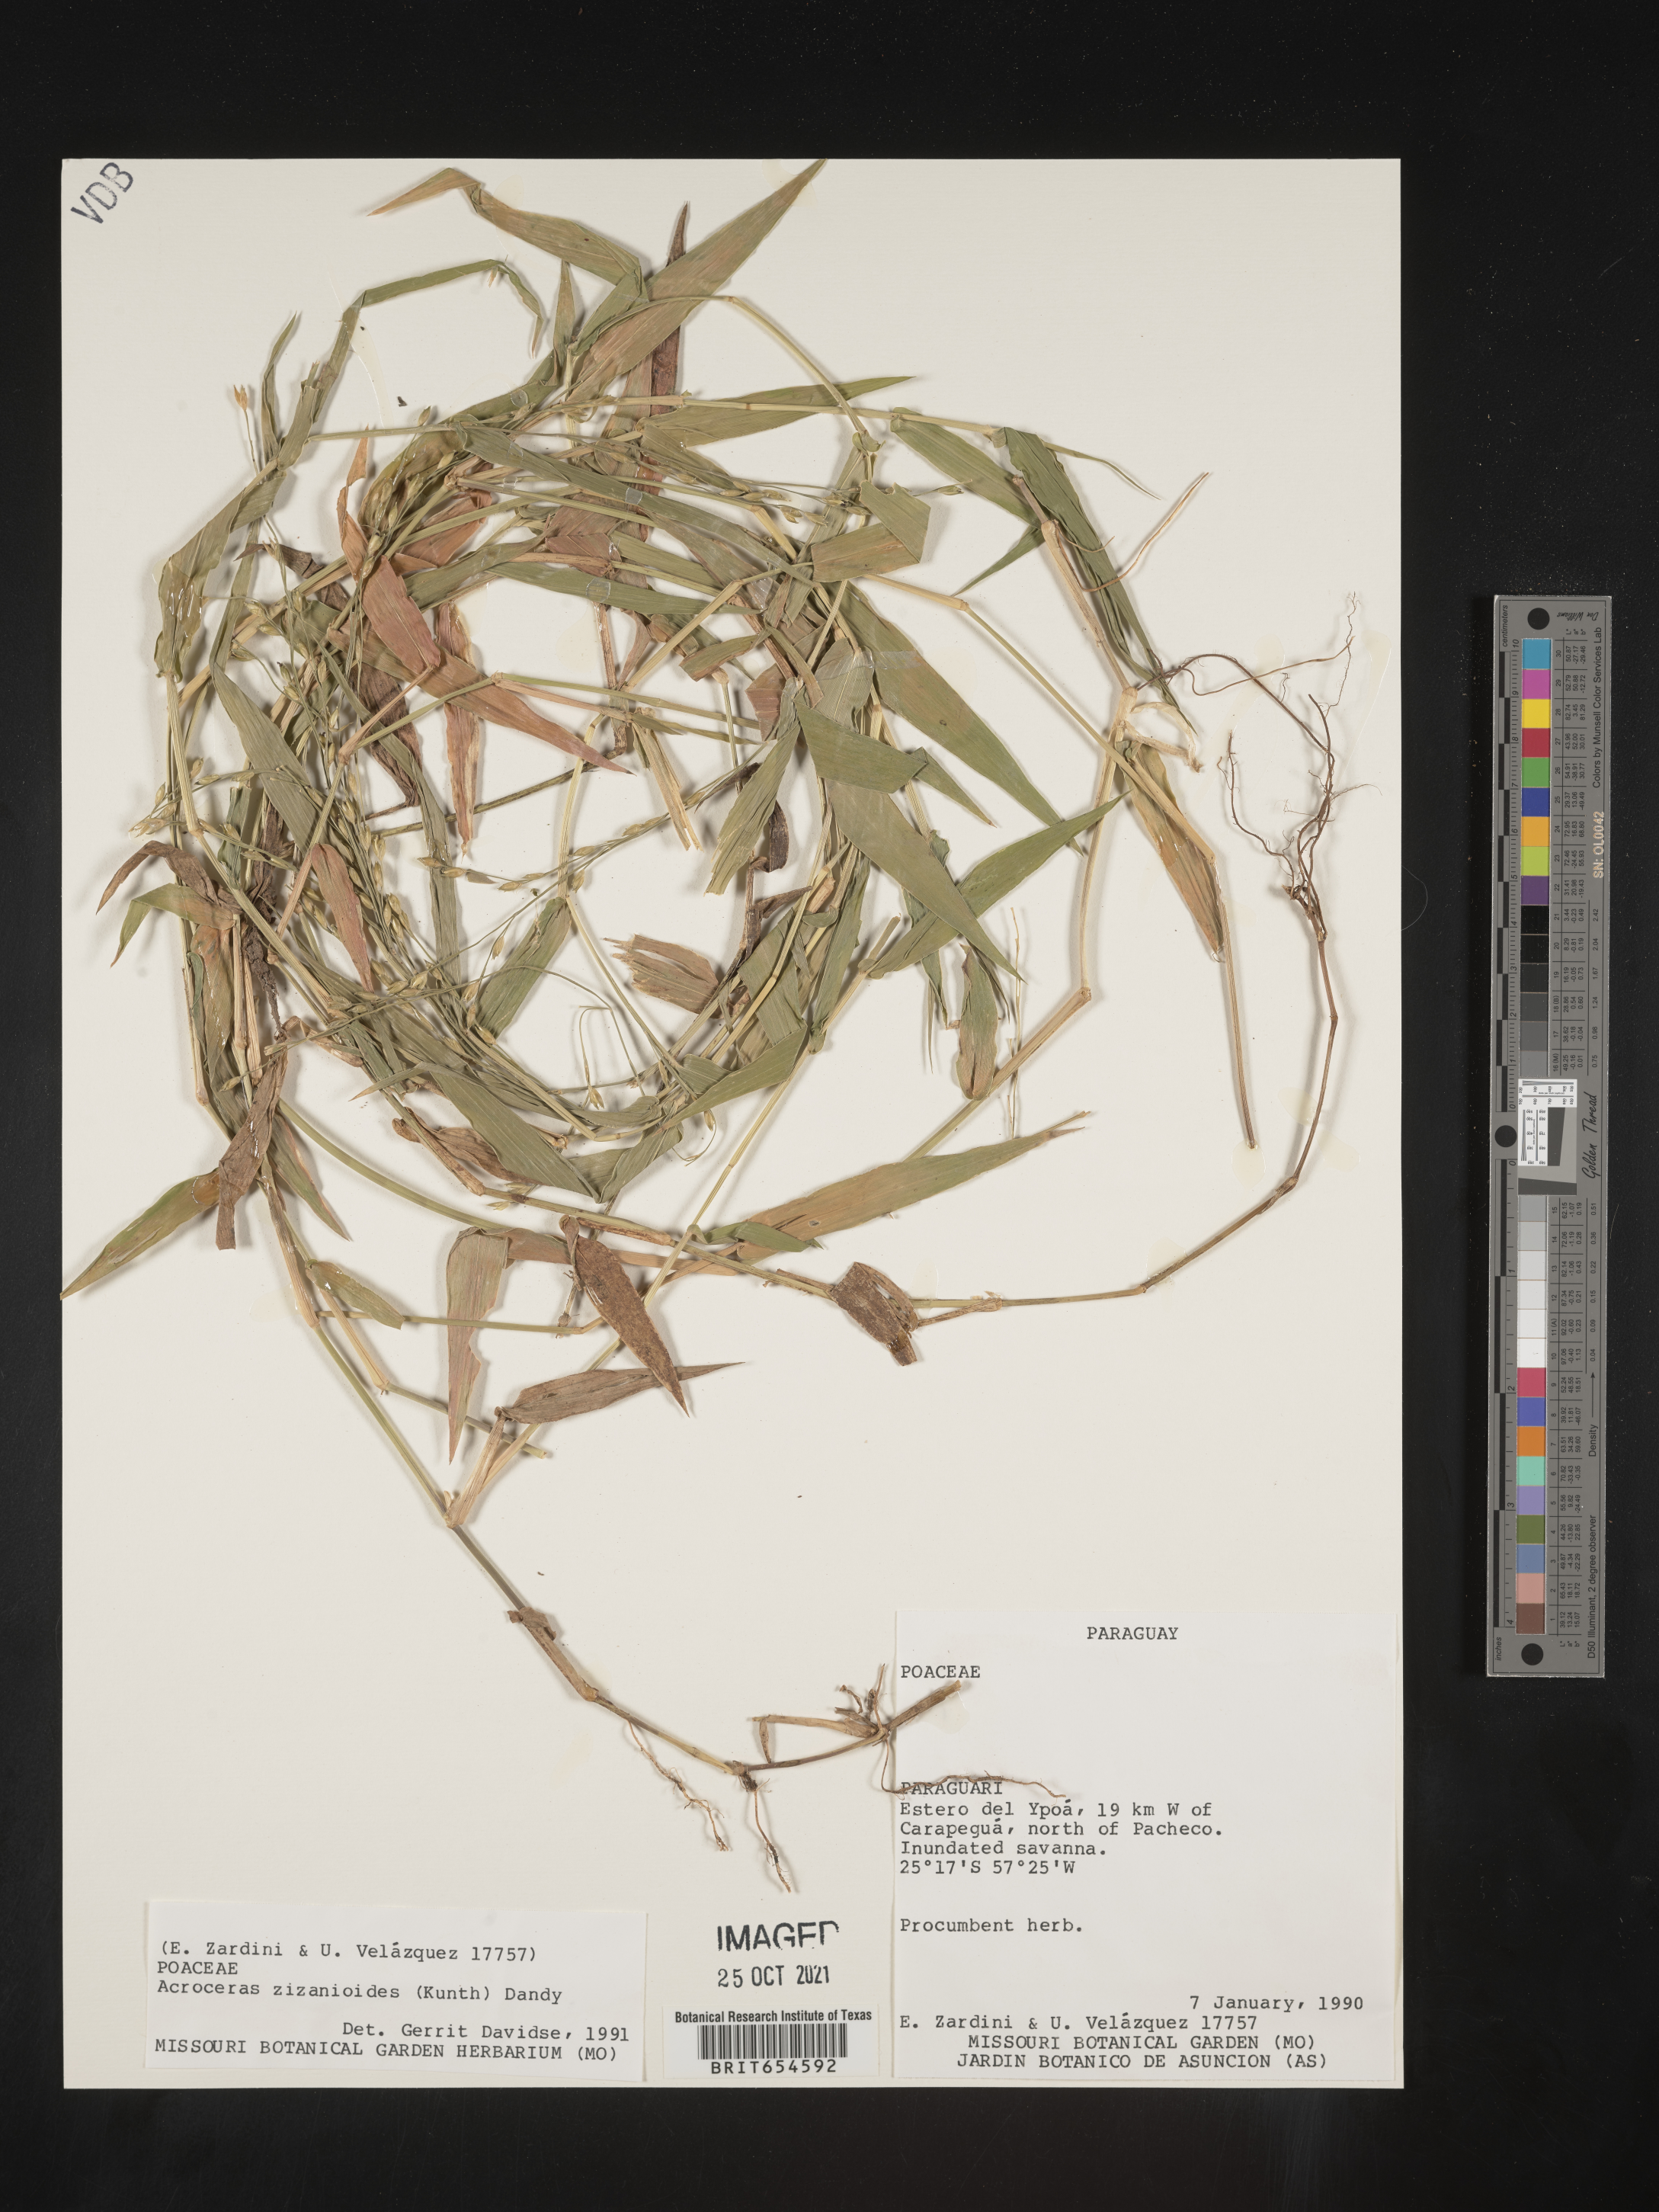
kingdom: Plantae
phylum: Tracheophyta
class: Liliopsida
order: Poales
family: Poaceae
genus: Acroceras
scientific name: Acroceras
